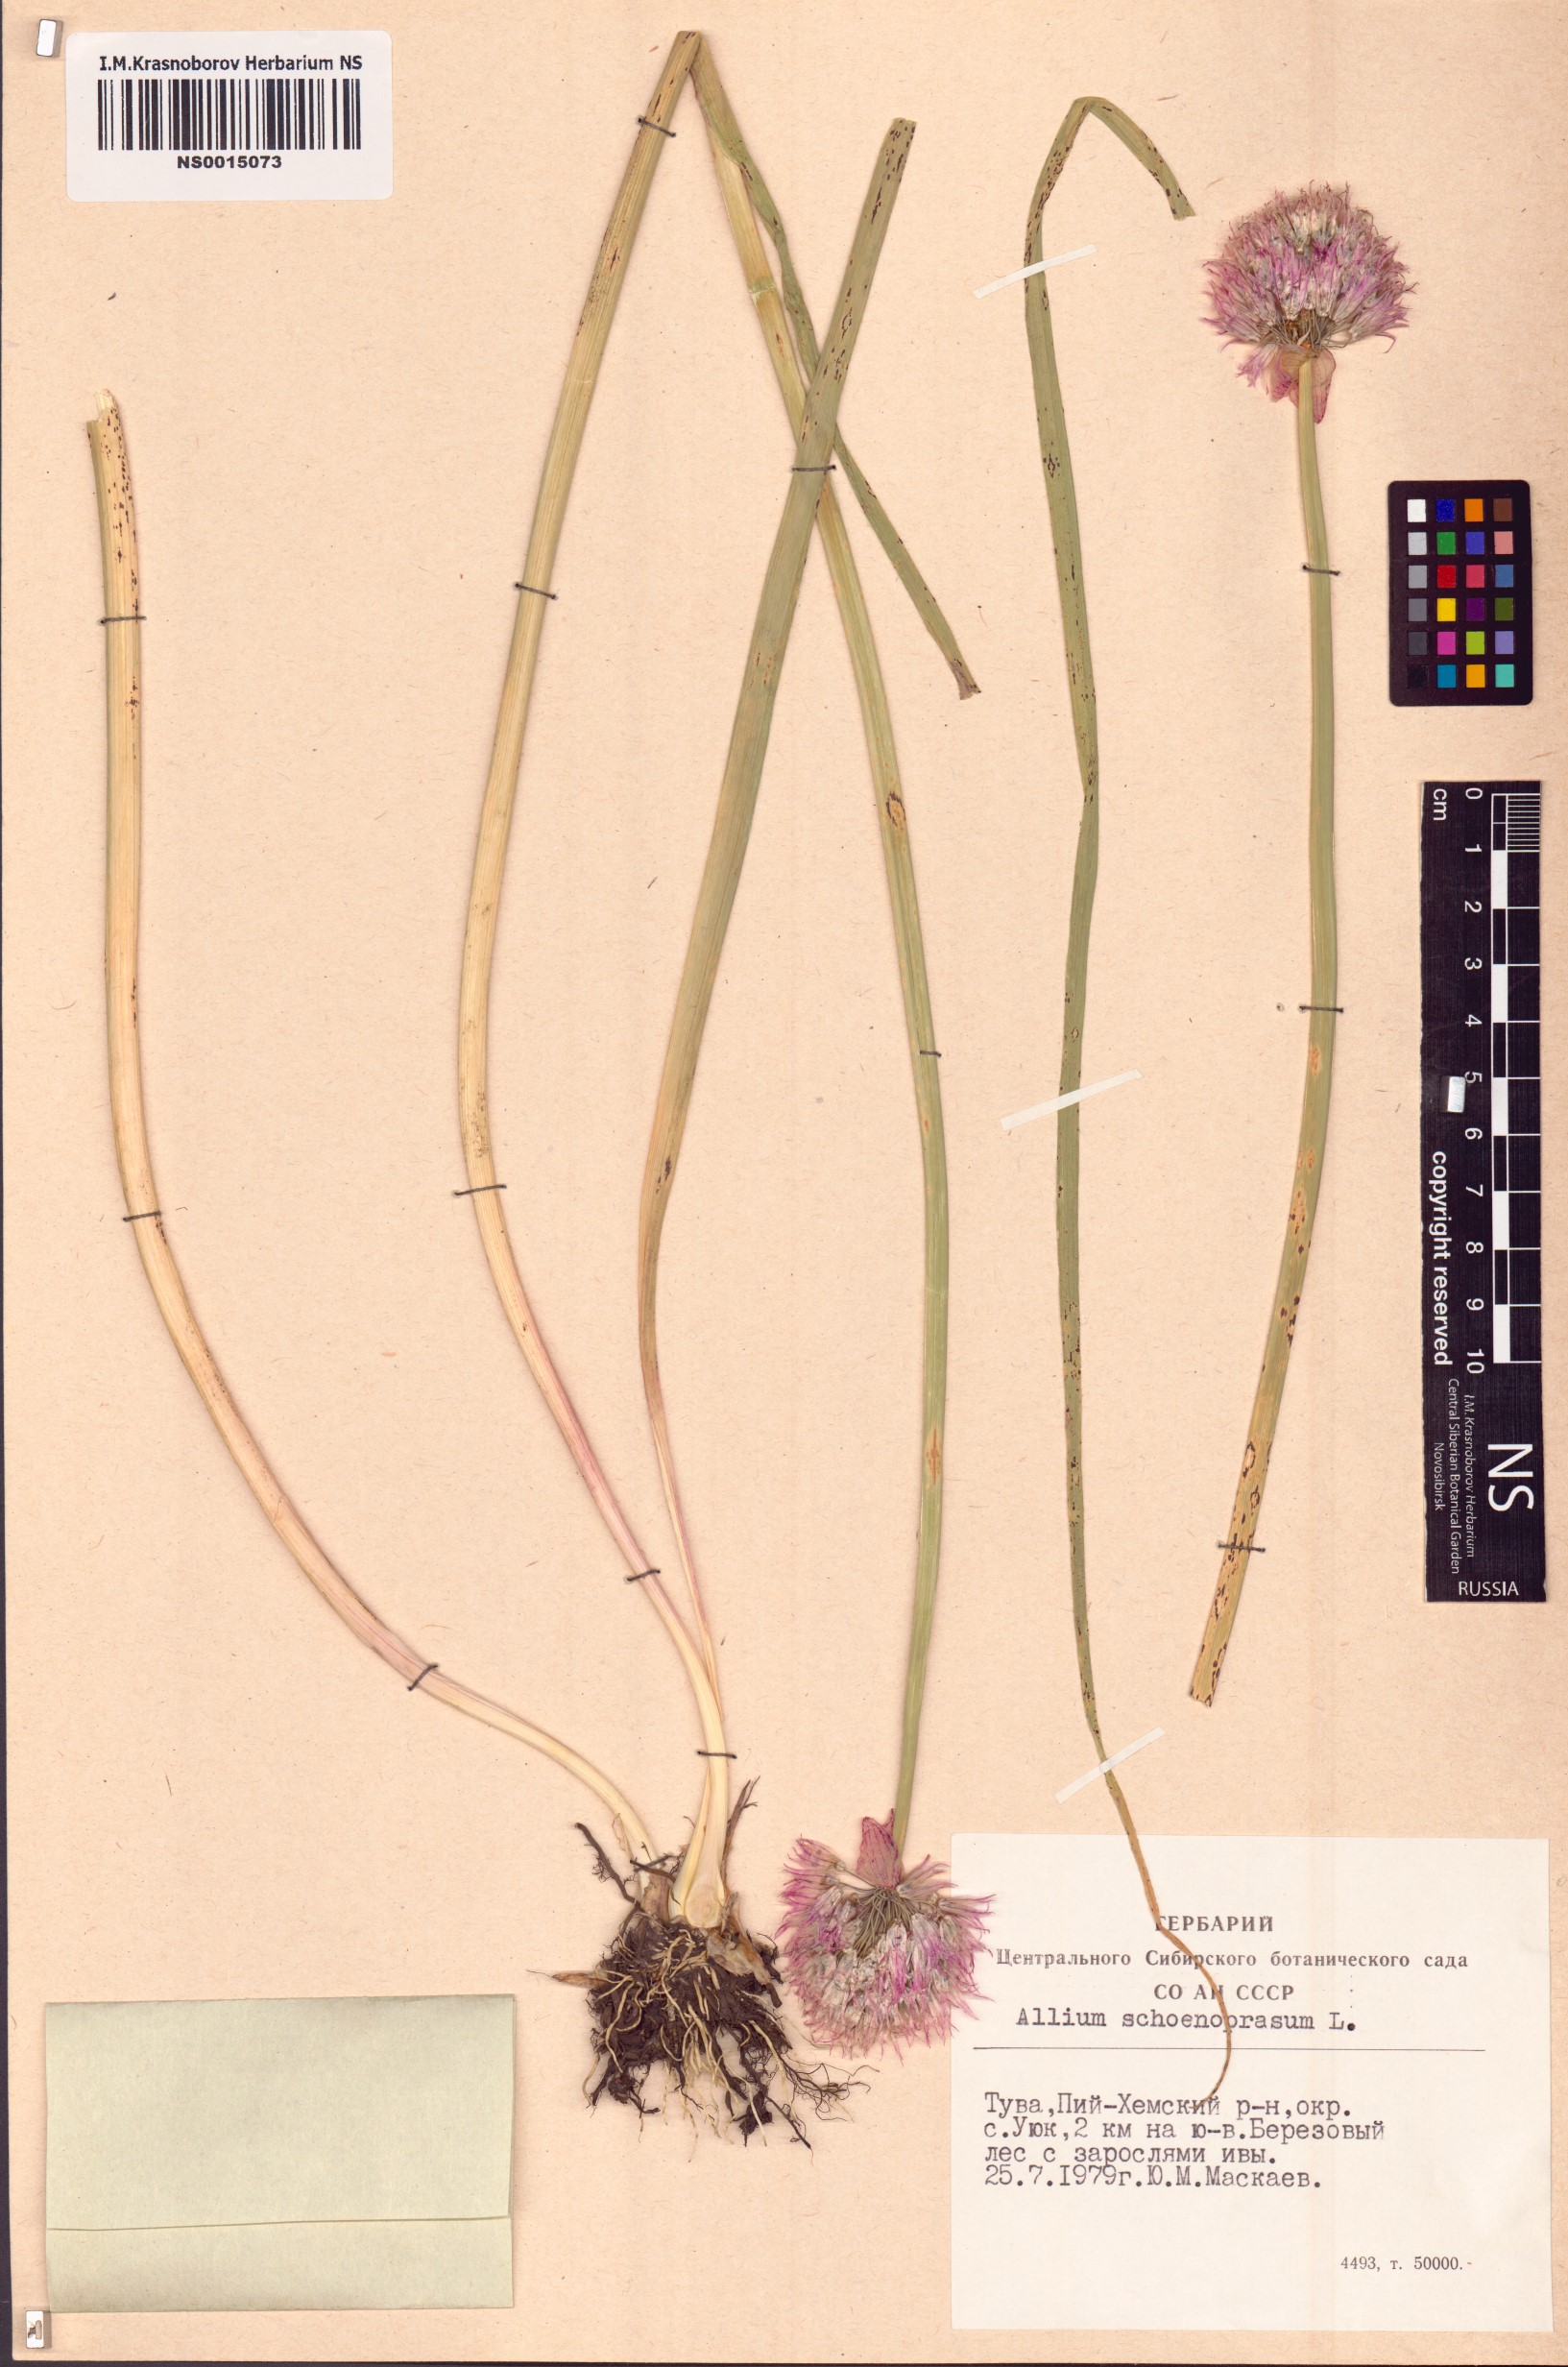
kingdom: Plantae
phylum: Tracheophyta
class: Liliopsida
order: Asparagales
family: Amaryllidaceae
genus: Allium
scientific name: Allium schoenoprasum
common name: Chives
